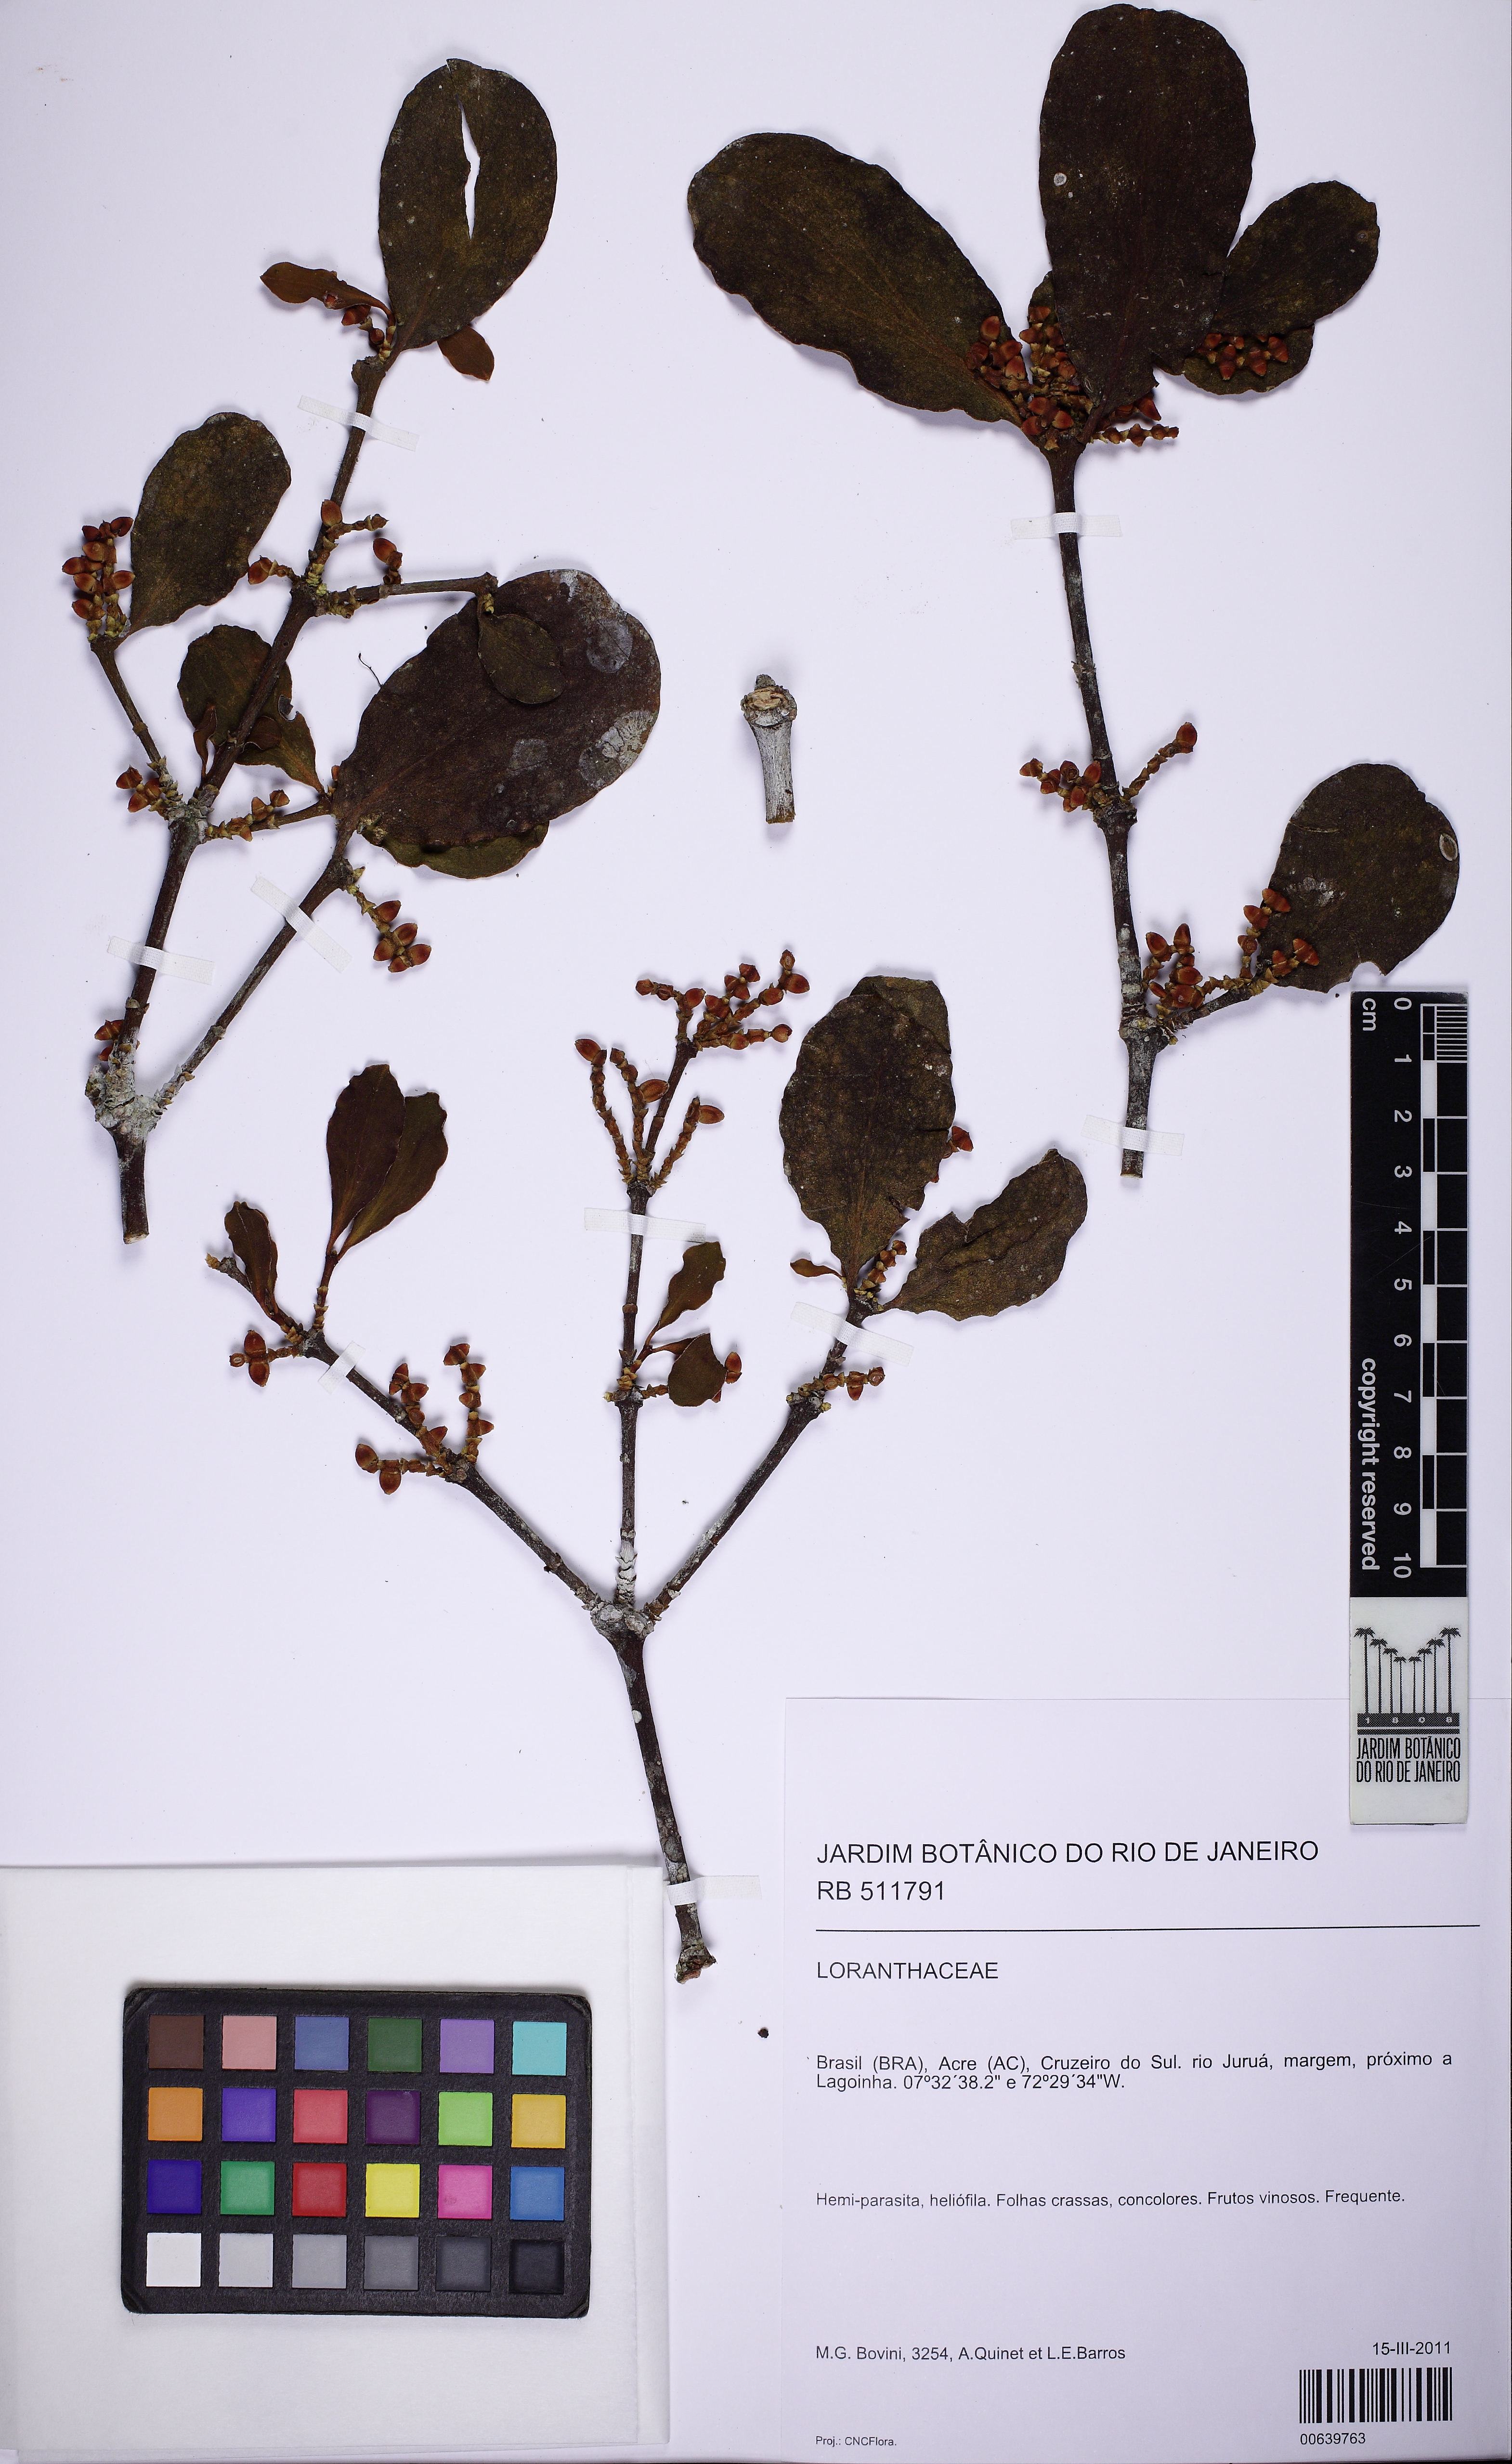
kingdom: Plantae
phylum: Tracheophyta
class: Magnoliopsida
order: Santalales
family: Viscaceae
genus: Phoradendron
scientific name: Phoradendron inaequidentatum
